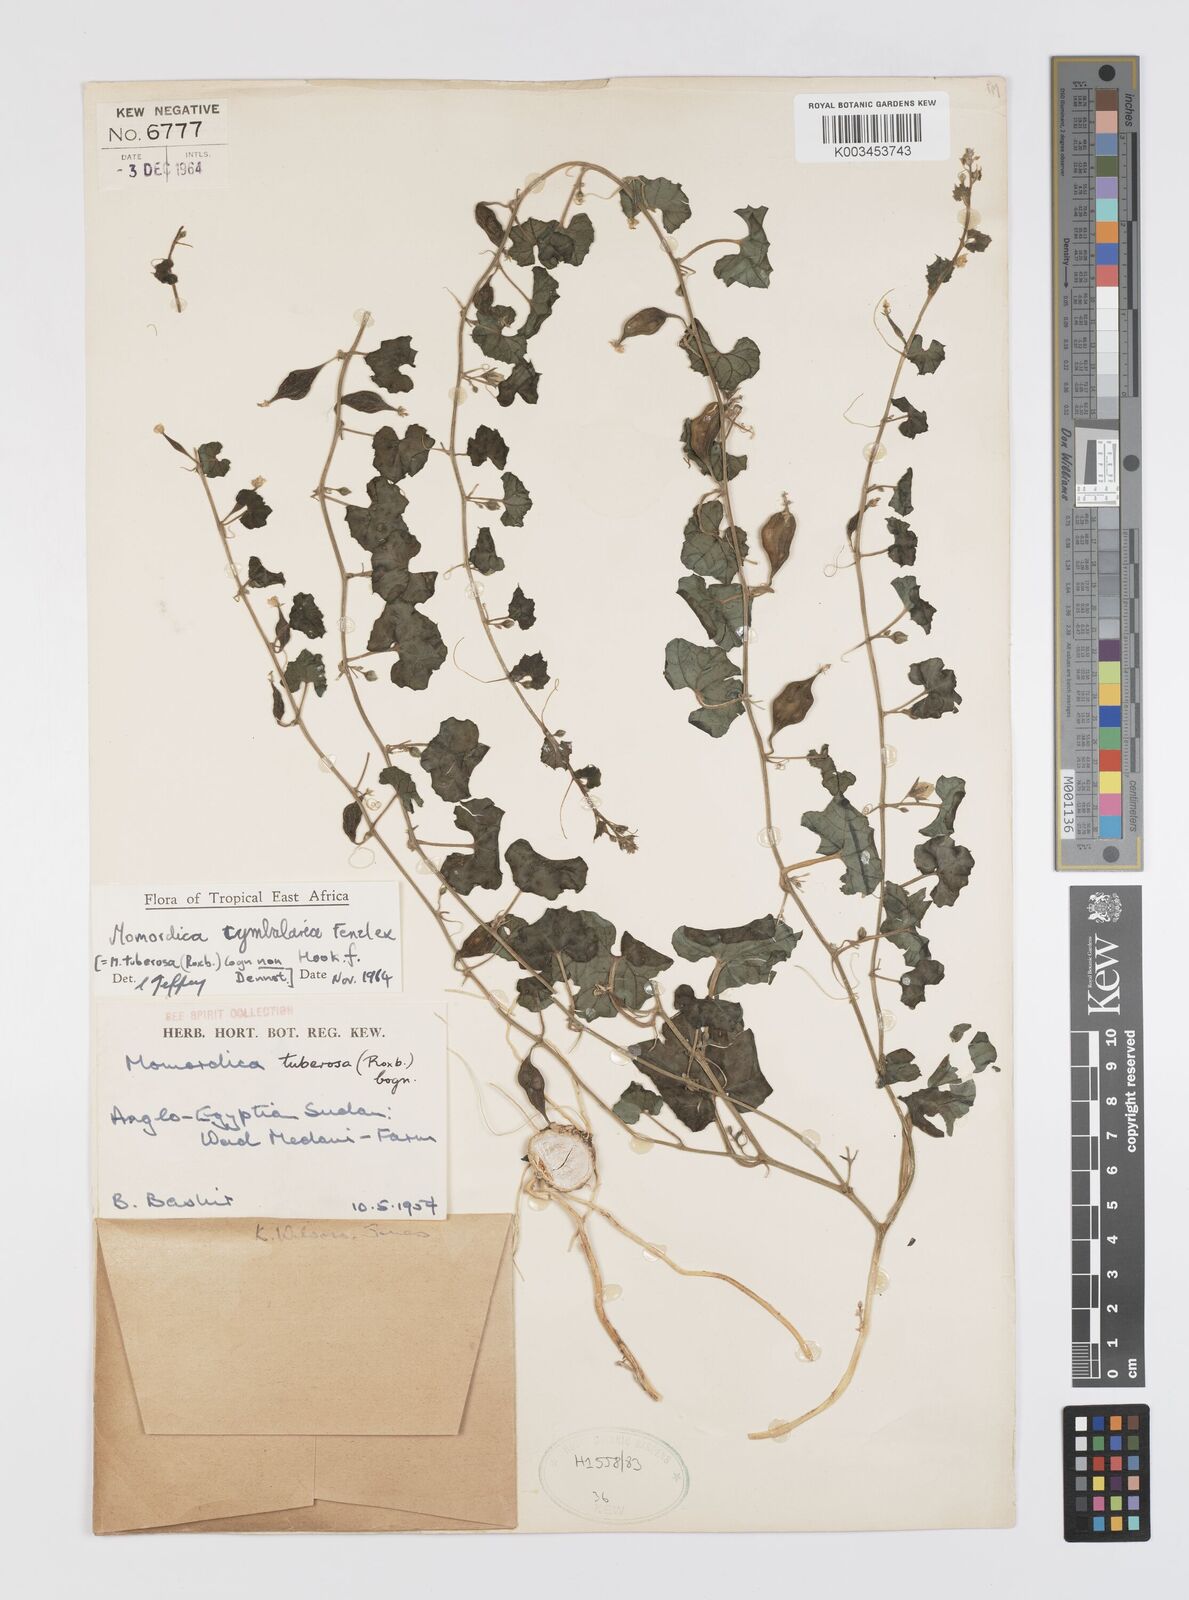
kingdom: Plantae
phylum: Tracheophyta
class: Magnoliopsida
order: Cucurbitales
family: Cucurbitaceae
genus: Momordica
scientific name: Momordica multiflora
